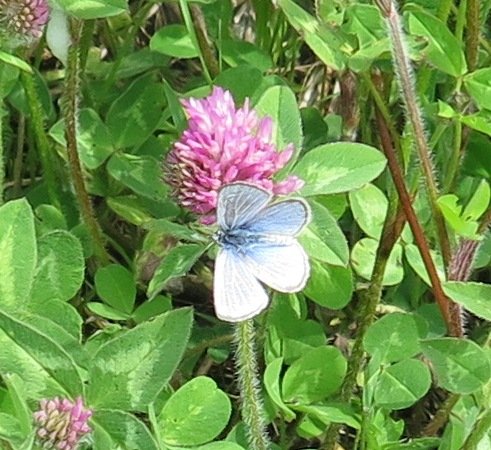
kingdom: Animalia
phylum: Arthropoda
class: Insecta
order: Lepidoptera
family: Lycaenidae
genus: Glaucopsyche
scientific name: Glaucopsyche lygdamus
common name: Silvery Blue
